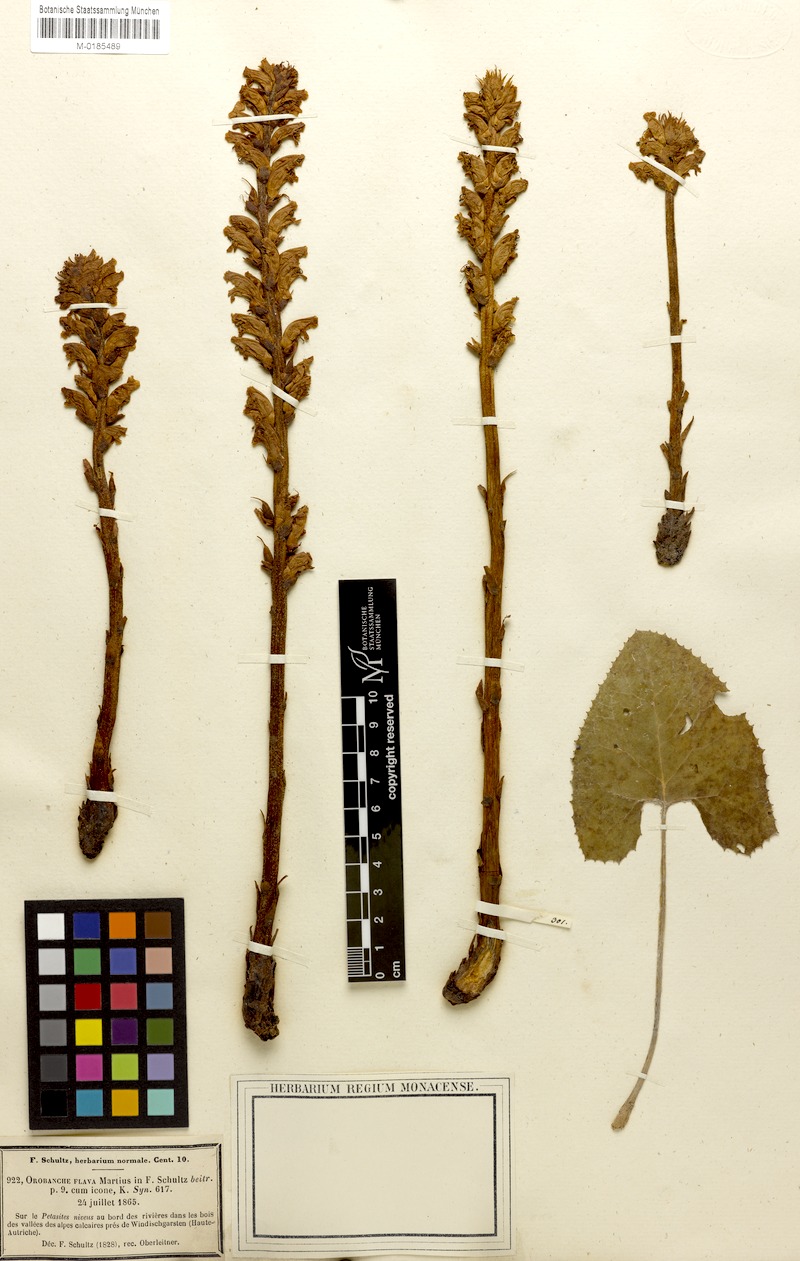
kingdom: Plantae
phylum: Tracheophyta
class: Magnoliopsida
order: Lamiales
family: Orobanchaceae
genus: Orobanche
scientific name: Orobanche flava
